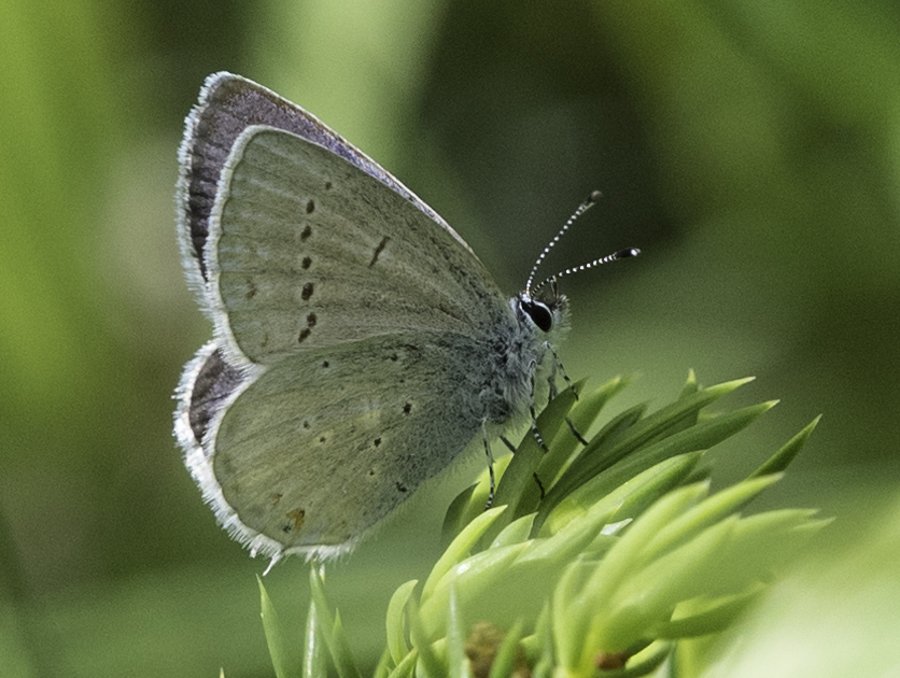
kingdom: Animalia
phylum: Arthropoda
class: Insecta
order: Lepidoptera
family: Lycaenidae
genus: Elkalyce
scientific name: Elkalyce amyntula
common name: Western Tailed-Blue
